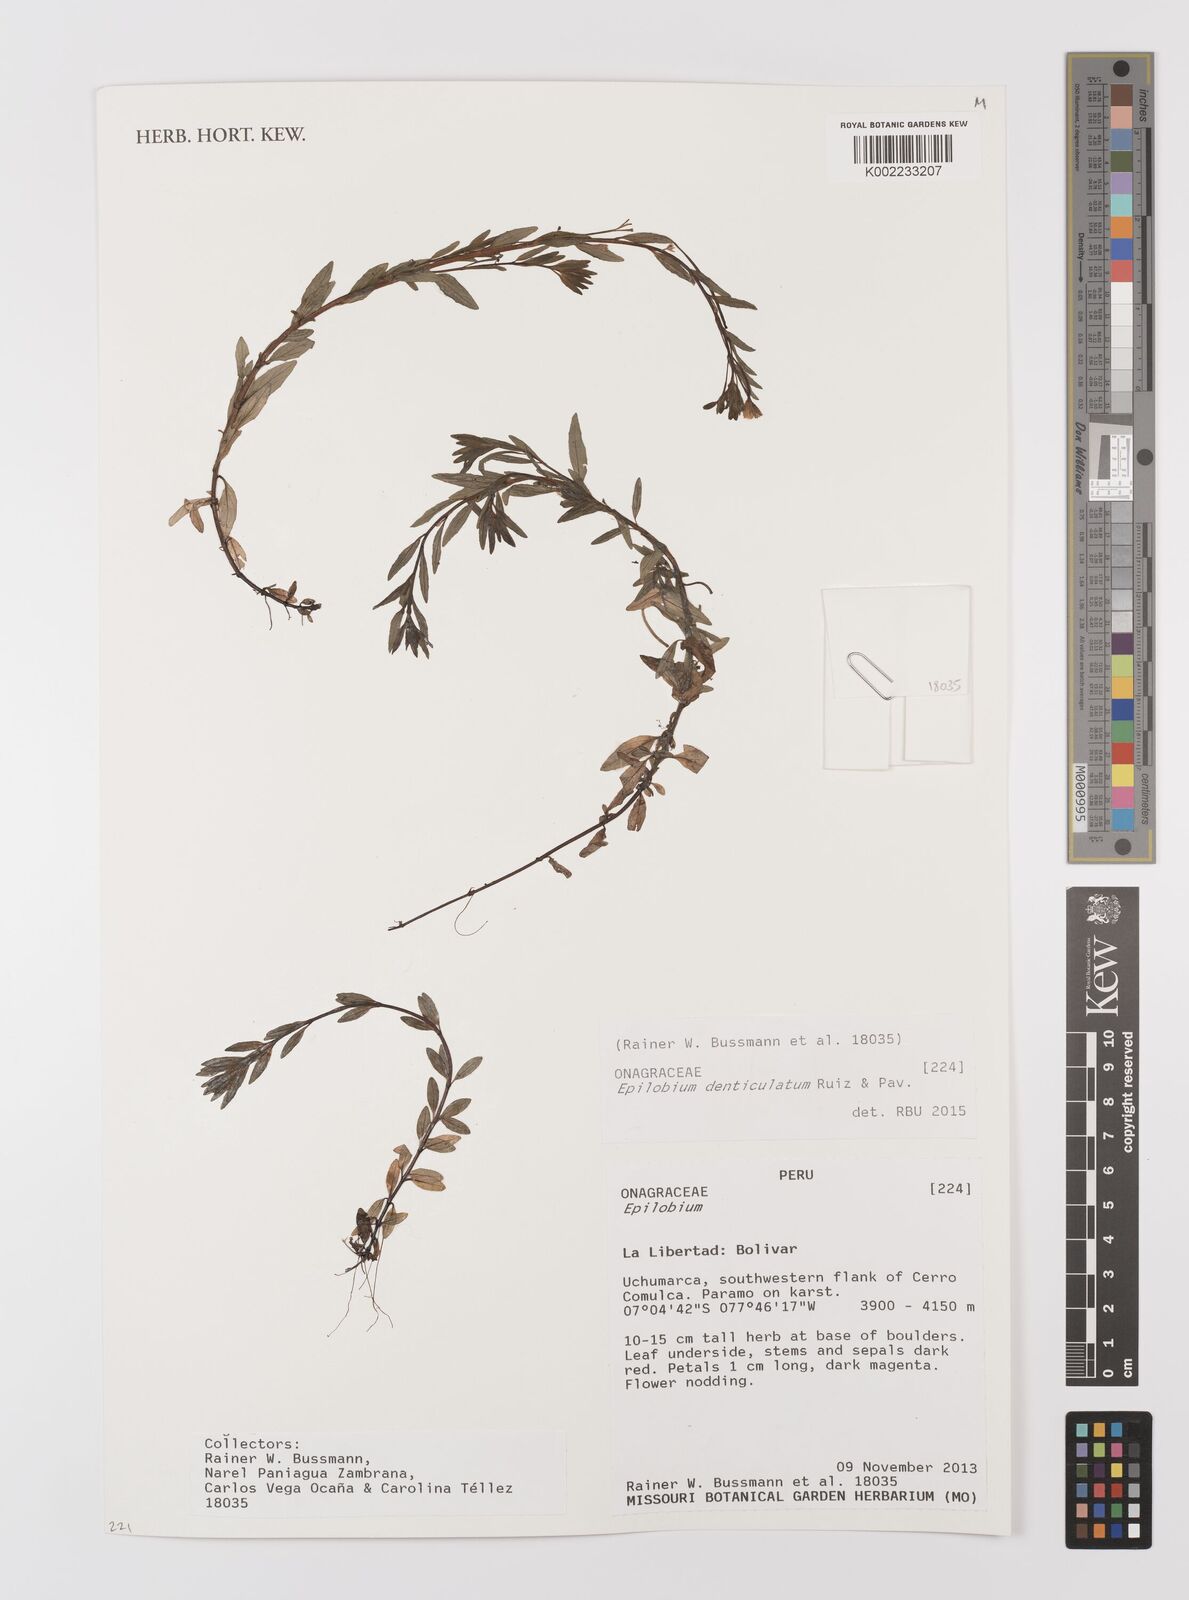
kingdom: Plantae
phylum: Tracheophyta
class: Magnoliopsida
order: Myrtales
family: Onagraceae
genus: Epilobium
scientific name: Epilobium denticulatum
